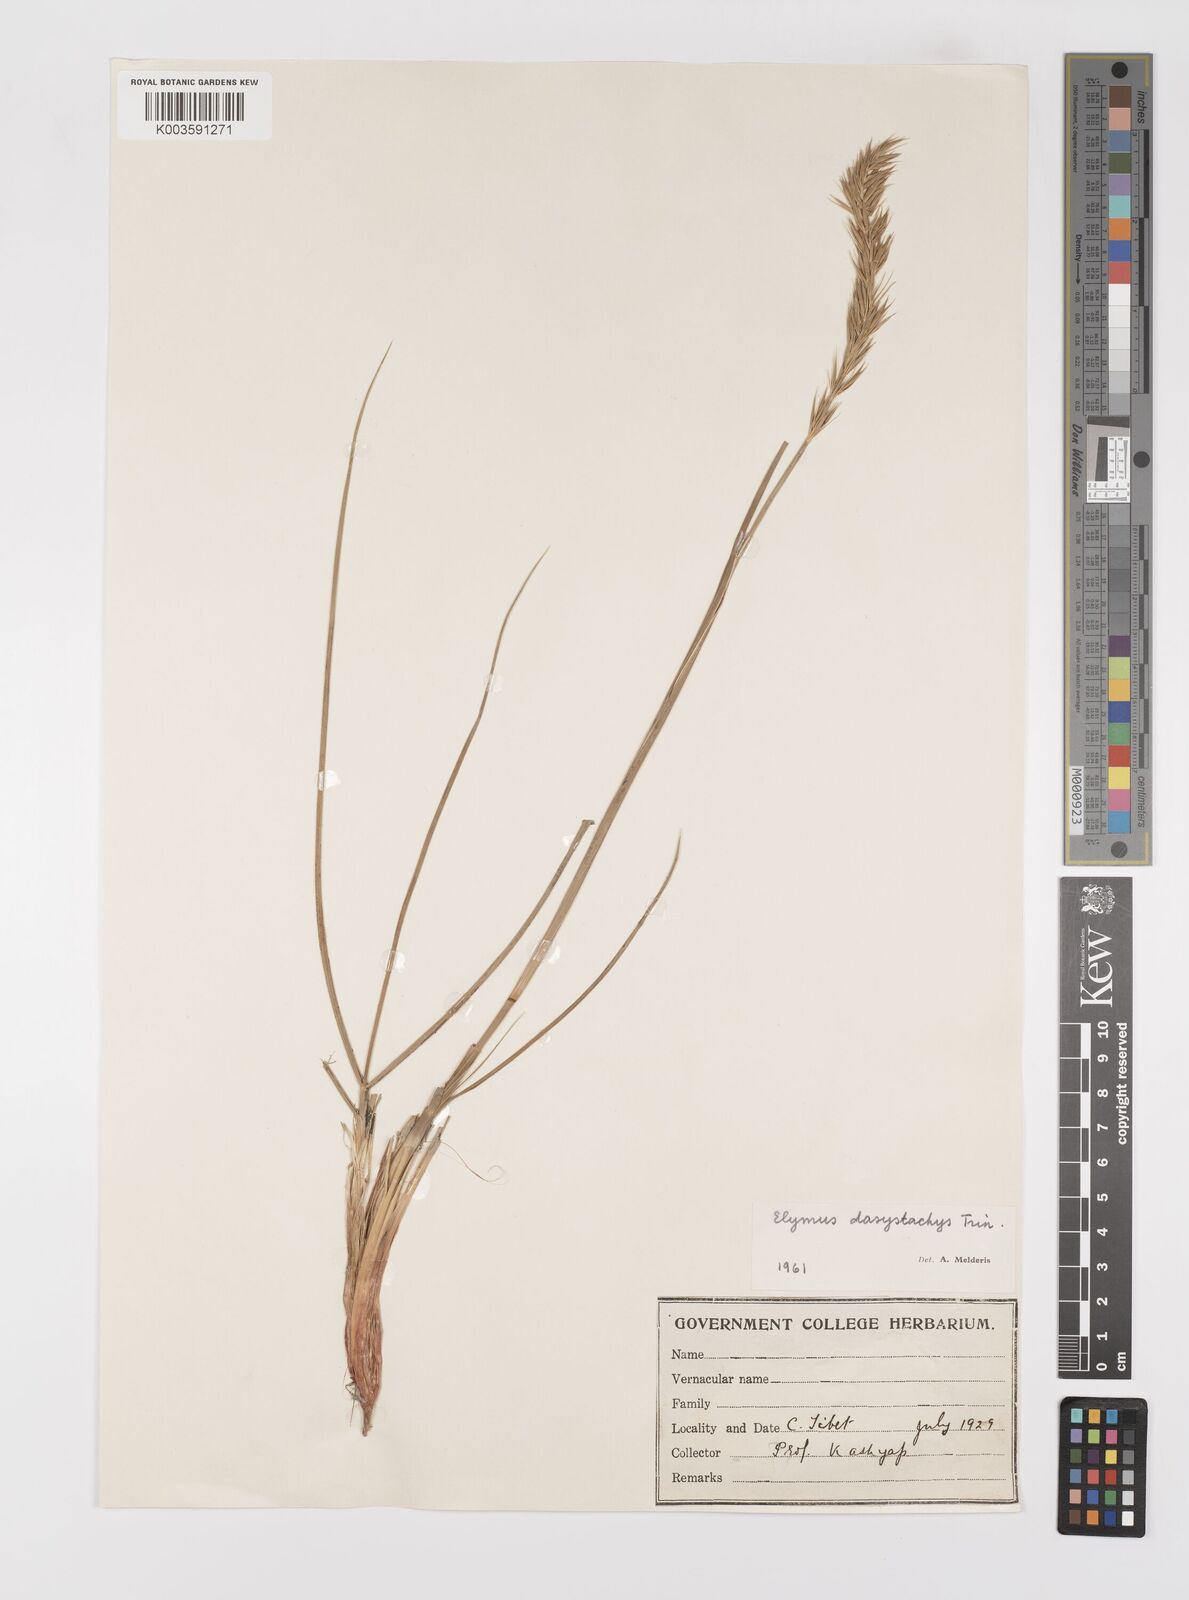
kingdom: Plantae
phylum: Tracheophyta
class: Liliopsida
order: Poales
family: Poaceae
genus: Leymus
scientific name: Leymus secalinus
